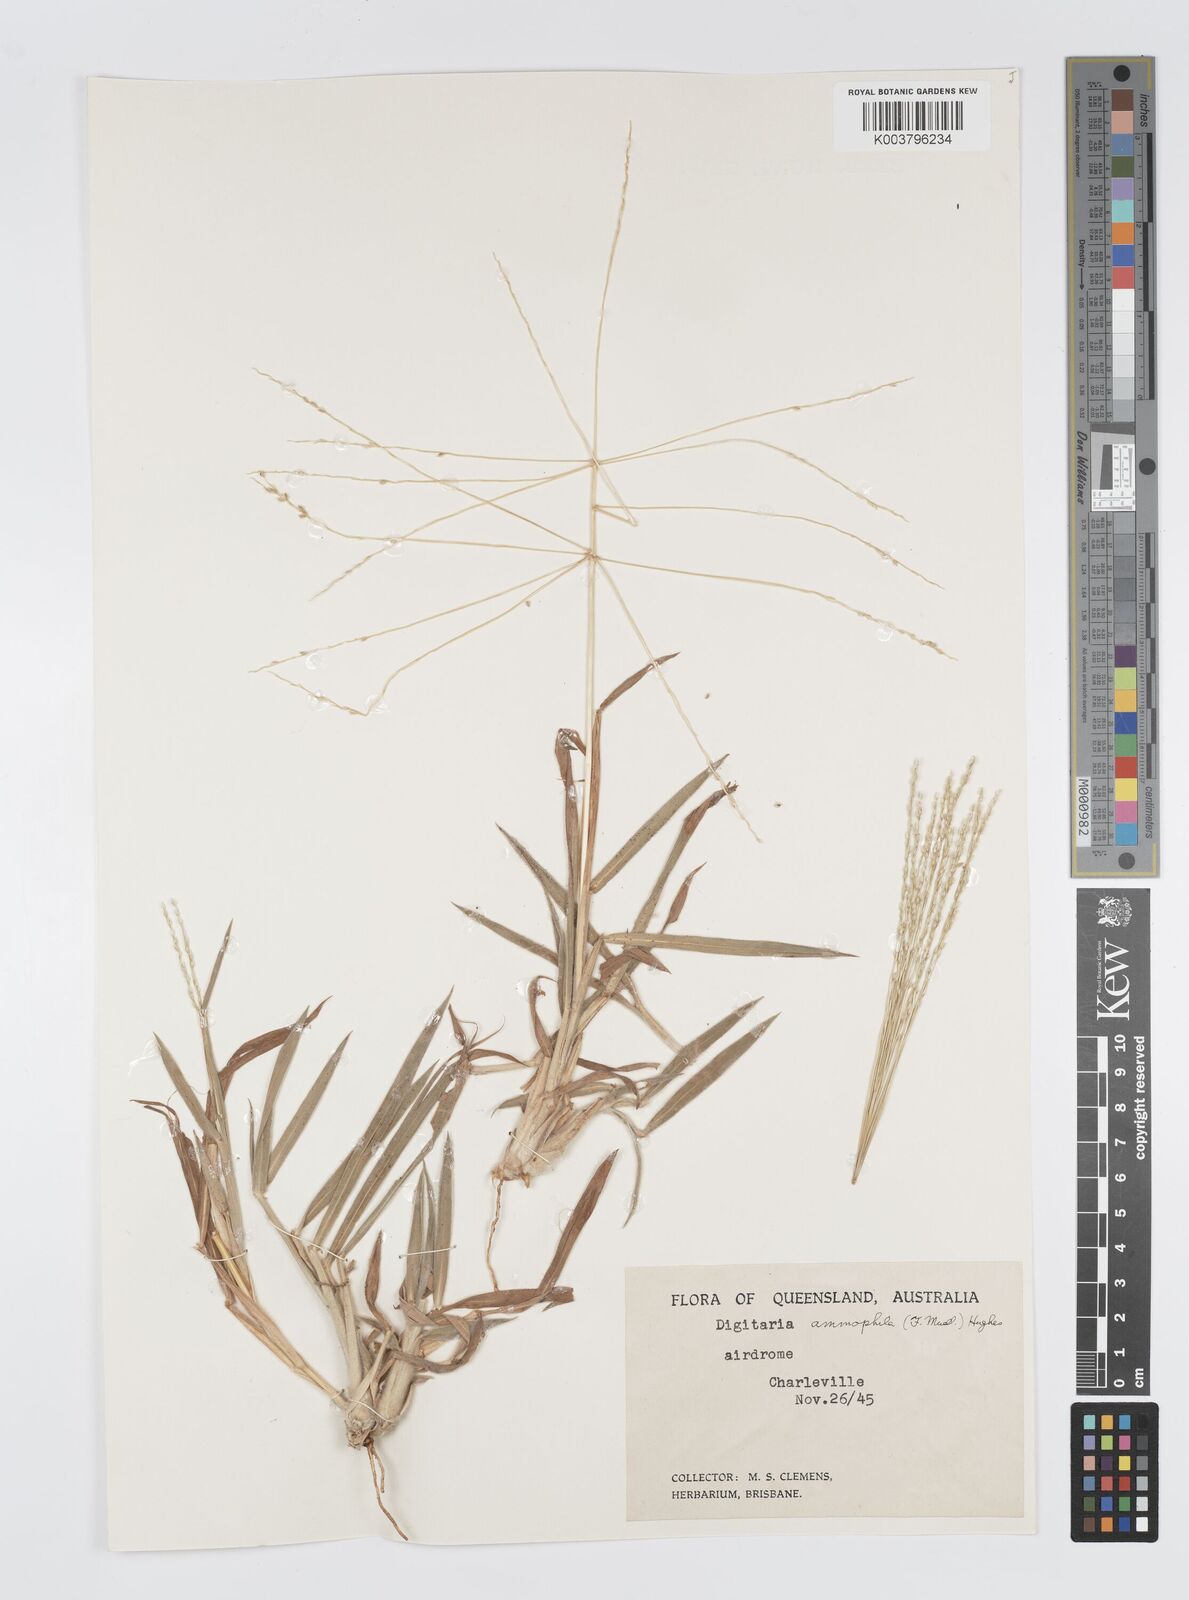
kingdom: Plantae
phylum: Tracheophyta
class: Liliopsida
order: Poales
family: Poaceae
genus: Digitaria
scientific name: Digitaria ammophila
